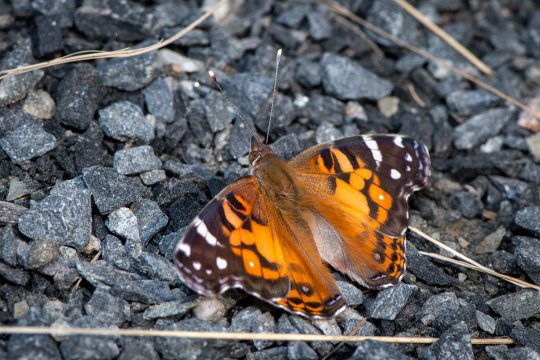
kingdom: Animalia
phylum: Arthropoda
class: Insecta
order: Lepidoptera
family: Nymphalidae
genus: Vanessa
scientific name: Vanessa virginiensis
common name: American Lady
